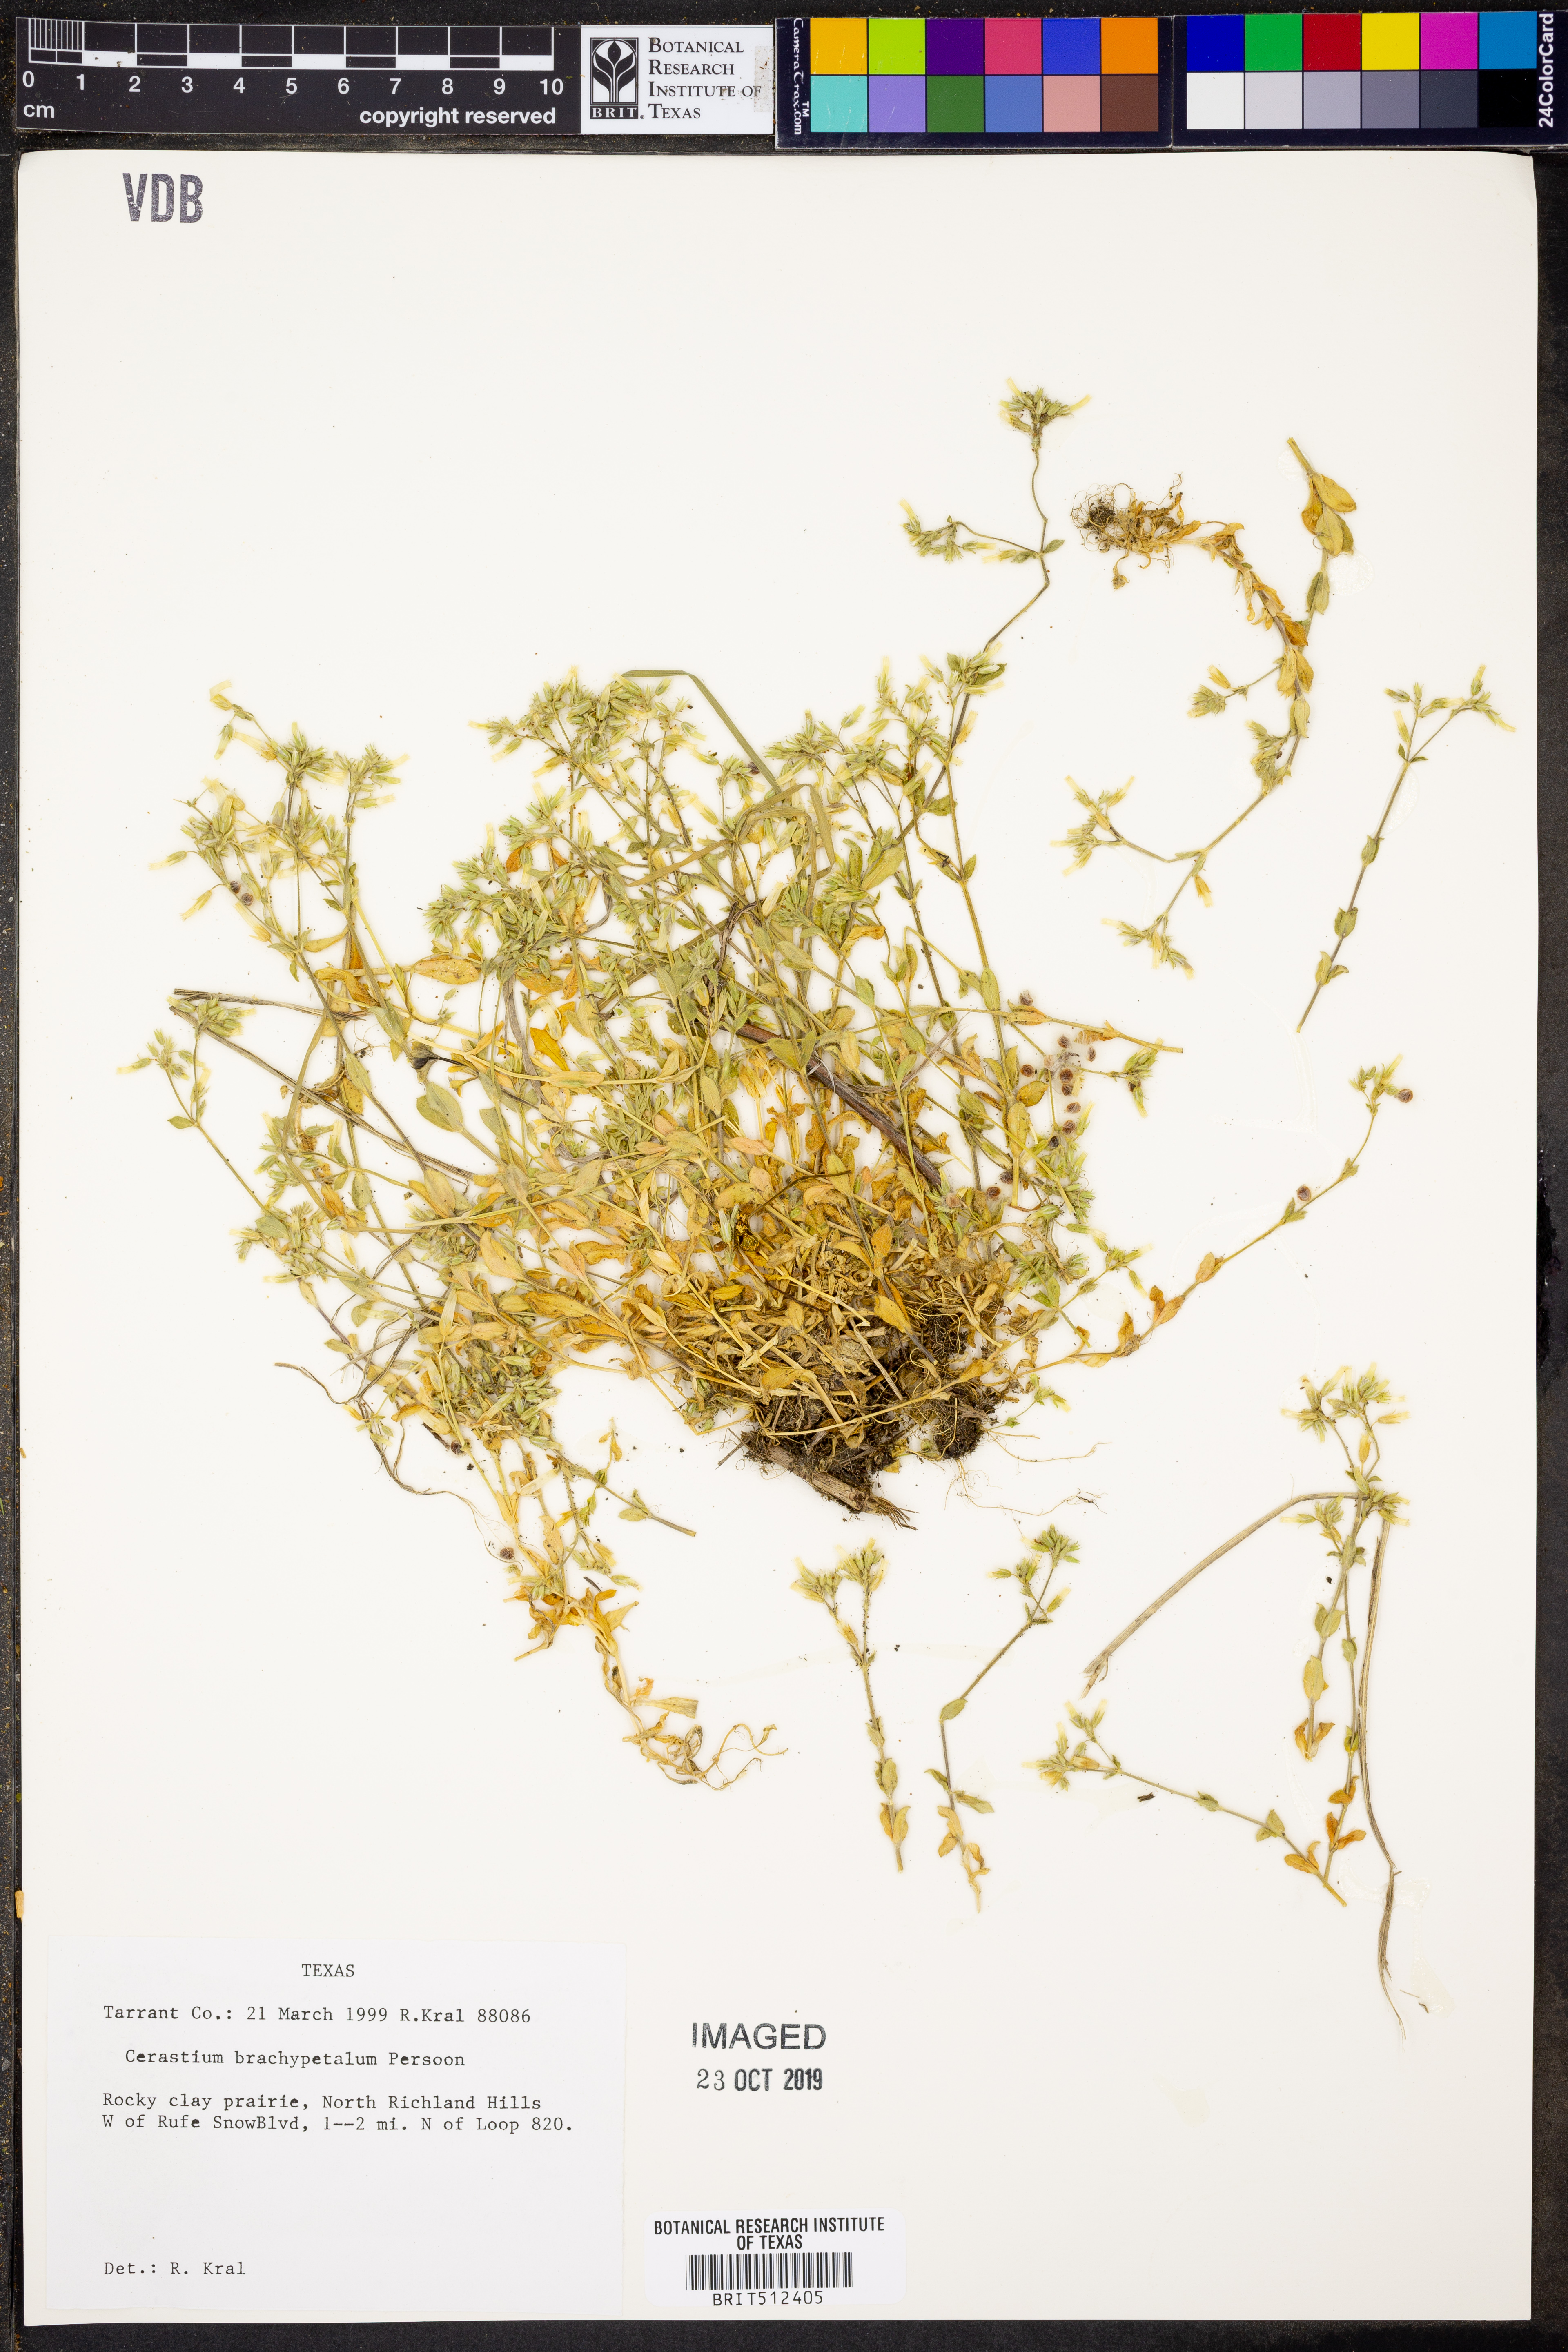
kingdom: Plantae
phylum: Tracheophyta
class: Magnoliopsida
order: Caryophyllales
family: Caryophyllaceae
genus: Cerastium
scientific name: Cerastium brachypetalum
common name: Grey mouse-ear
